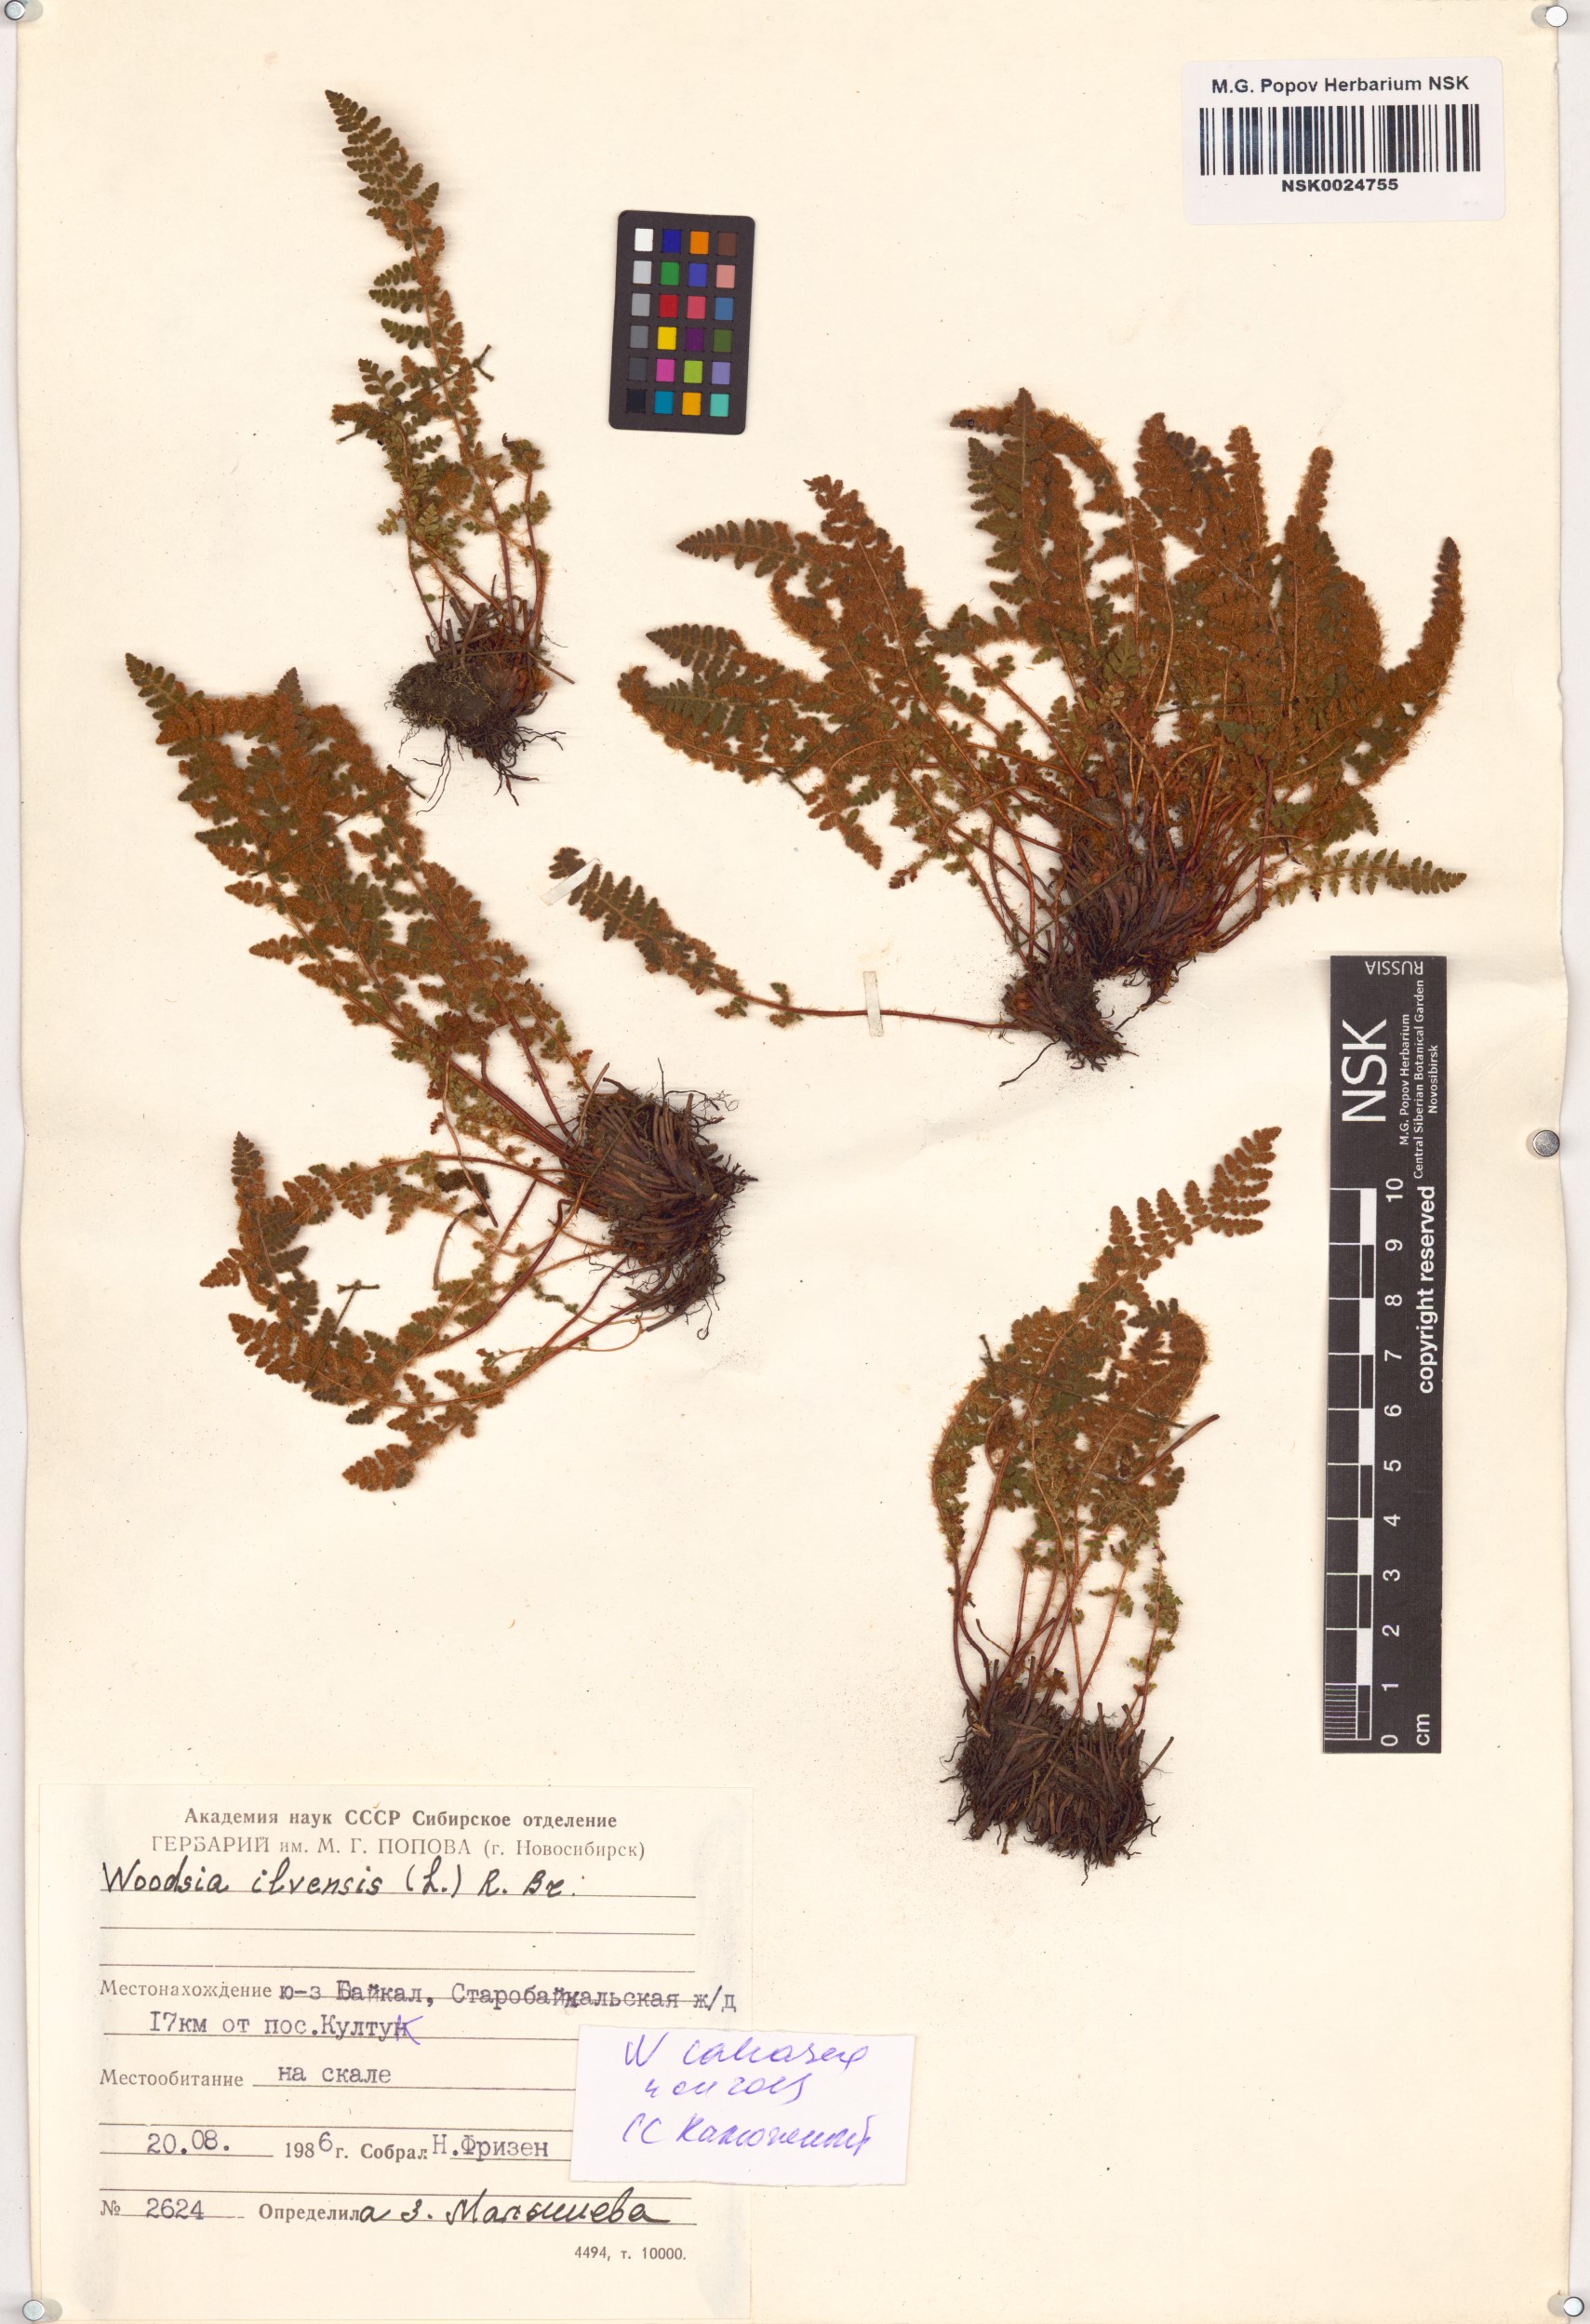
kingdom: Plantae
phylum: Tracheophyta
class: Polypodiopsida
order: Polypodiales
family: Woodsiaceae
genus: Woodsia
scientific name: Woodsia calcarea
